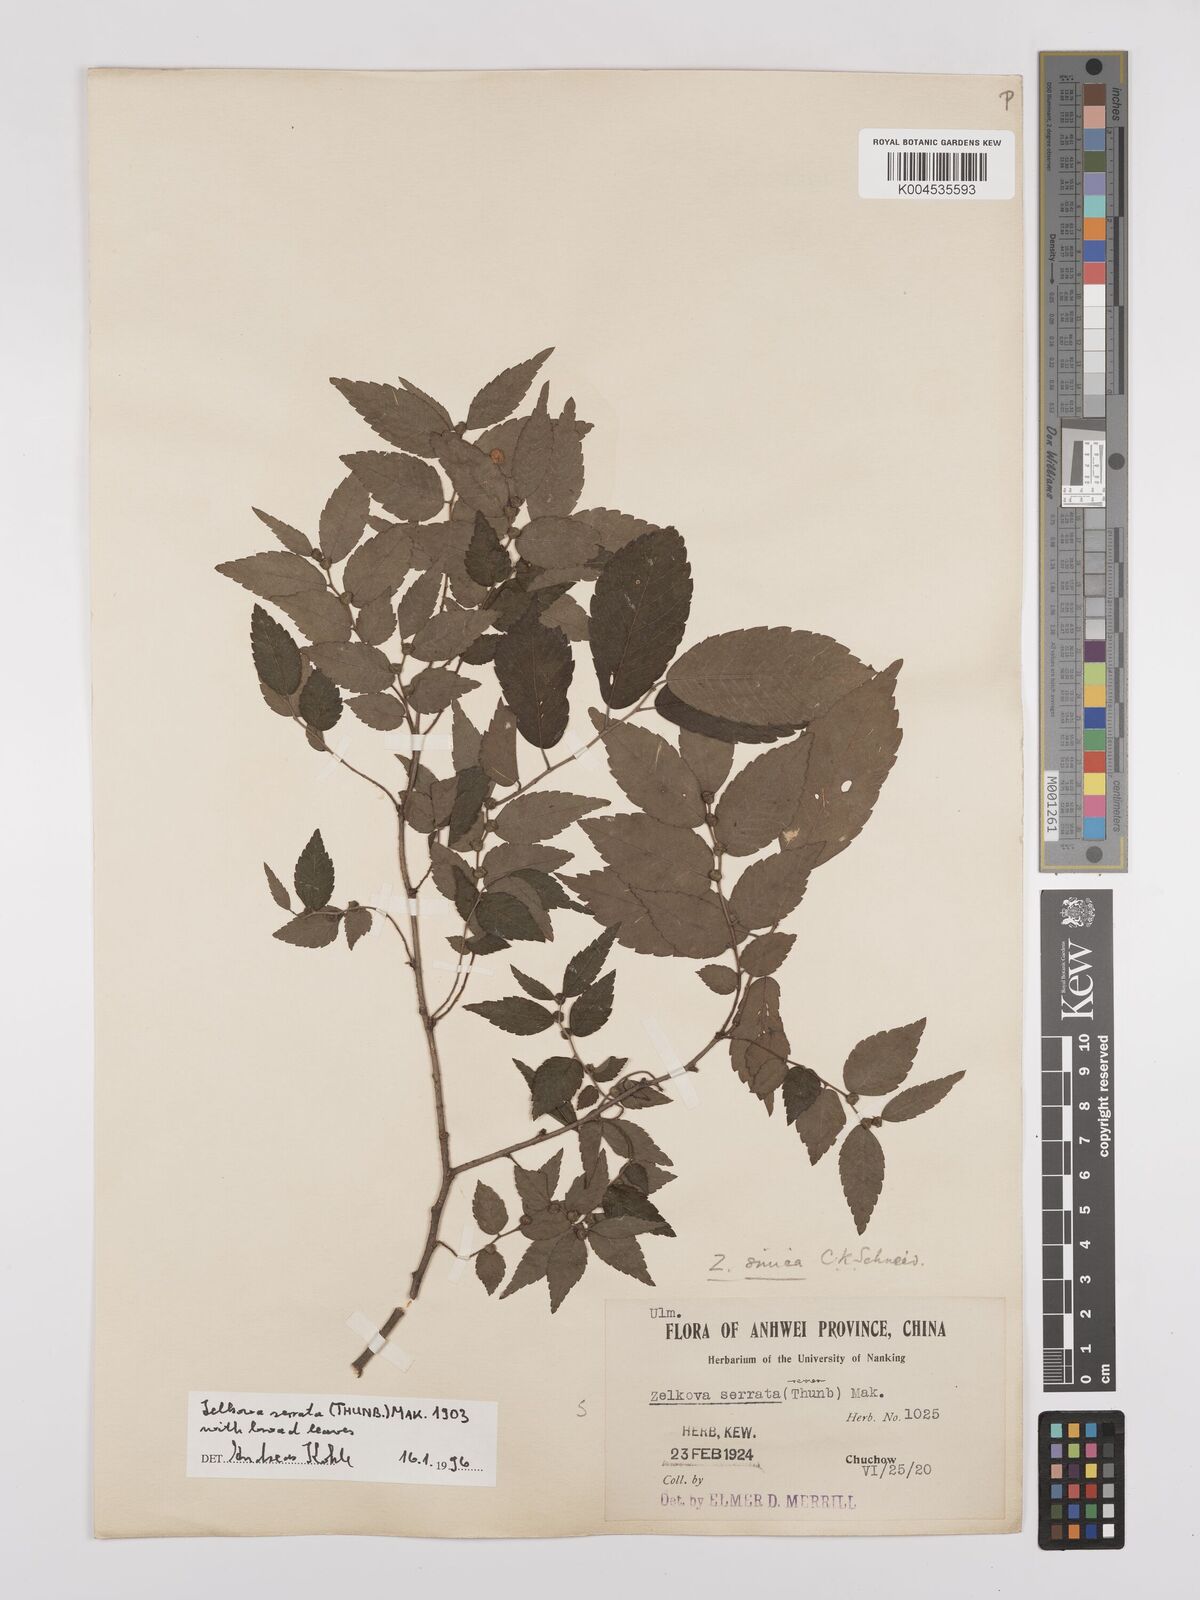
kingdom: Plantae
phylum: Tracheophyta
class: Magnoliopsida
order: Rosales
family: Ulmaceae
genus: Zelkova
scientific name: Zelkova serrata
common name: Japanese zelkova
